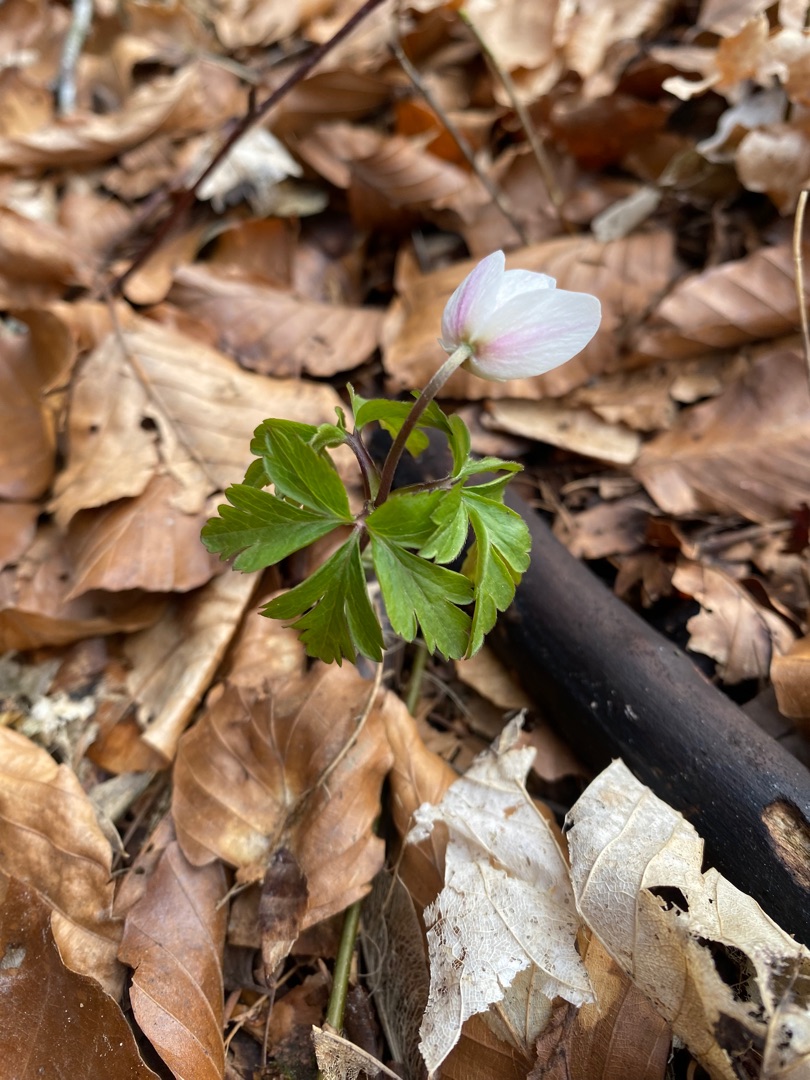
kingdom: Plantae
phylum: Tracheophyta
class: Magnoliopsida
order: Ranunculales
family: Ranunculaceae
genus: Anemone
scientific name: Anemone nemorosa
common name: Hvid anemone
